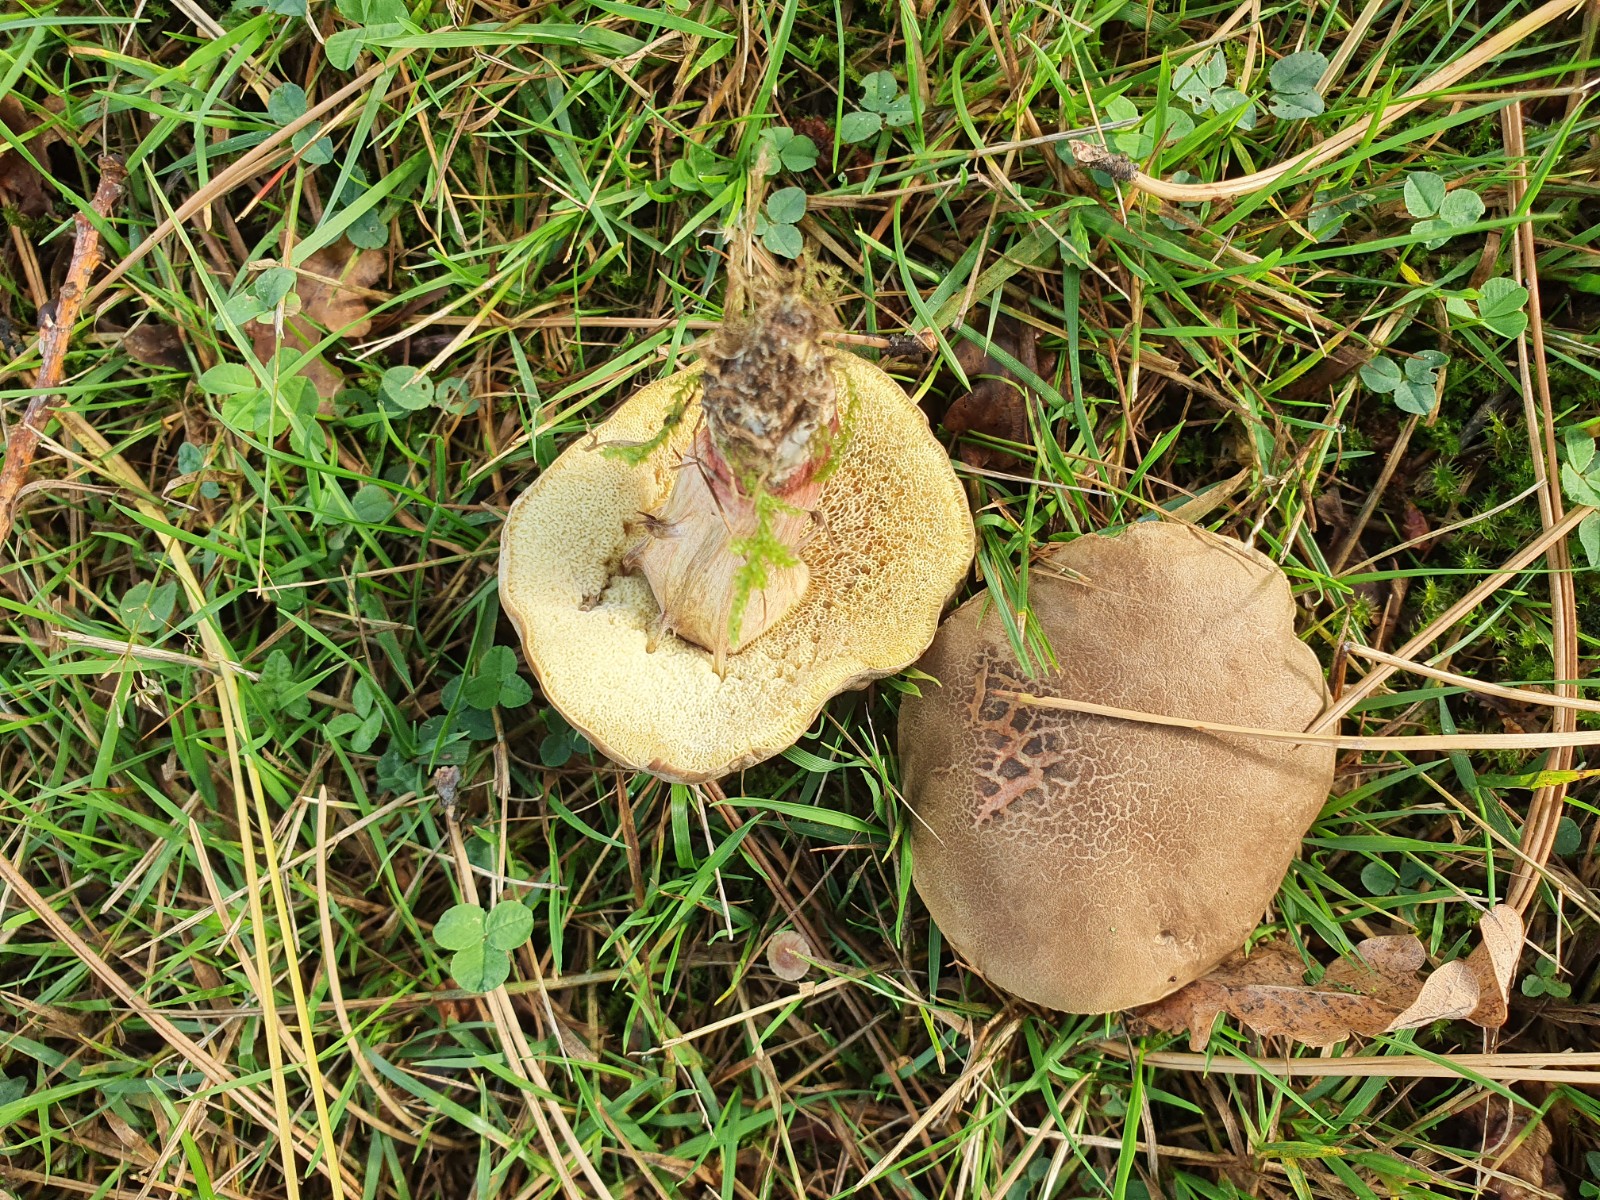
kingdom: Fungi
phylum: Basidiomycota
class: Agaricomycetes
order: Boletales
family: Boletaceae
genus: Xerocomellus
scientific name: Xerocomellus chrysenteron
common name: rødsprukken rørhat
